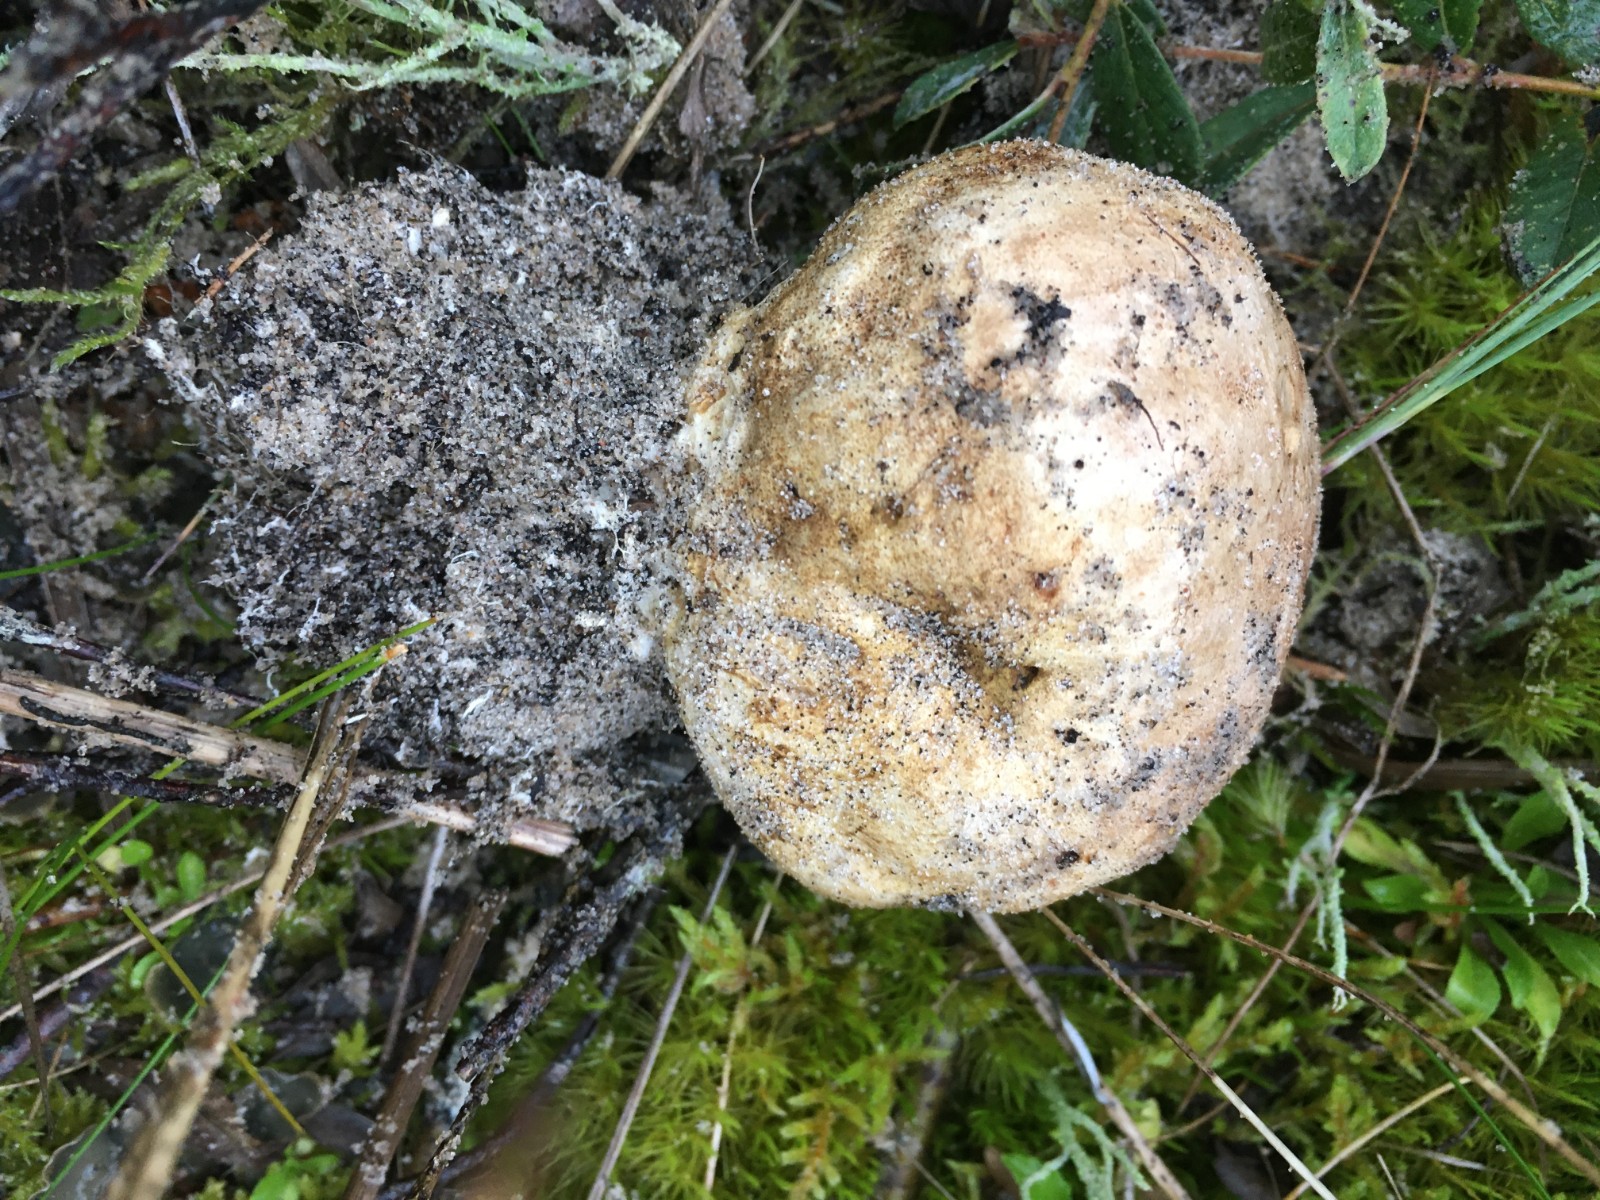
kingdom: Fungi
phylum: Basidiomycota
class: Agaricomycetes
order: Boletales
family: Sclerodermataceae
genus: Scleroderma
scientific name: Scleroderma septentrionale
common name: sand-bruskbold
